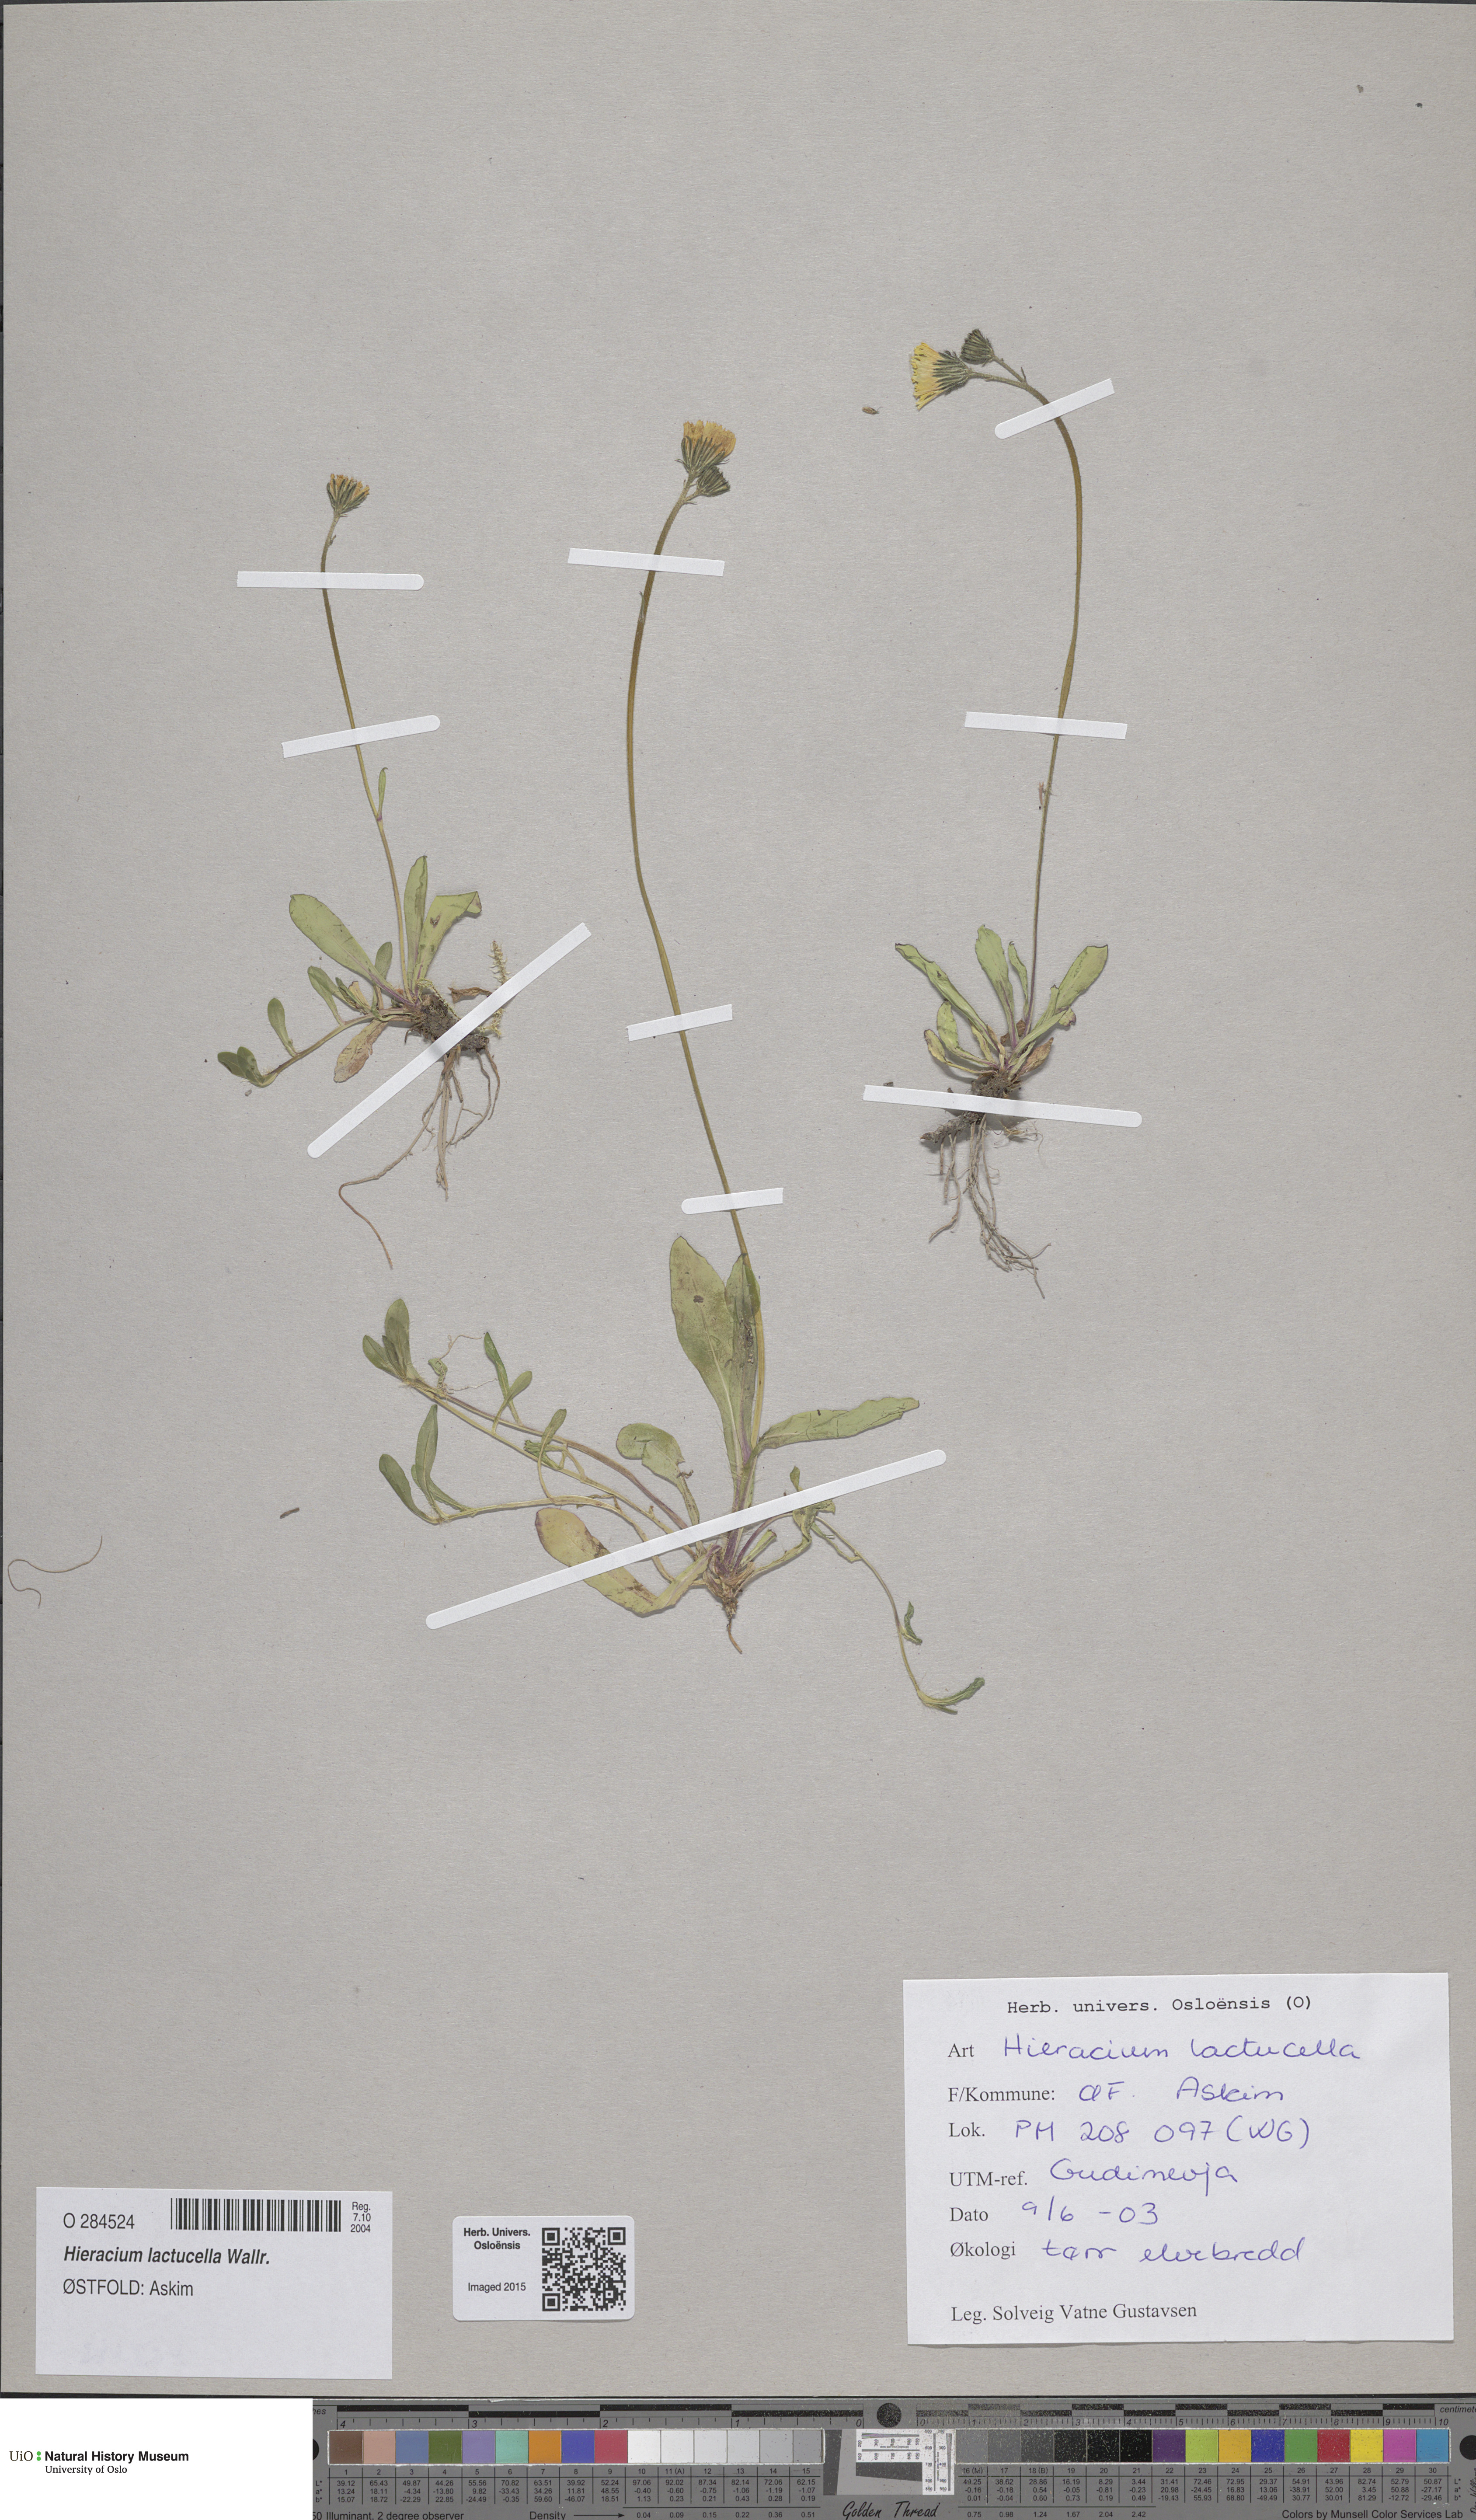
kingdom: Plantae
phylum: Tracheophyta
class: Magnoliopsida
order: Asterales
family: Asteraceae
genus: Pilosella
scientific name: Pilosella lactucella
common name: Glaucous fox-and-cubs
